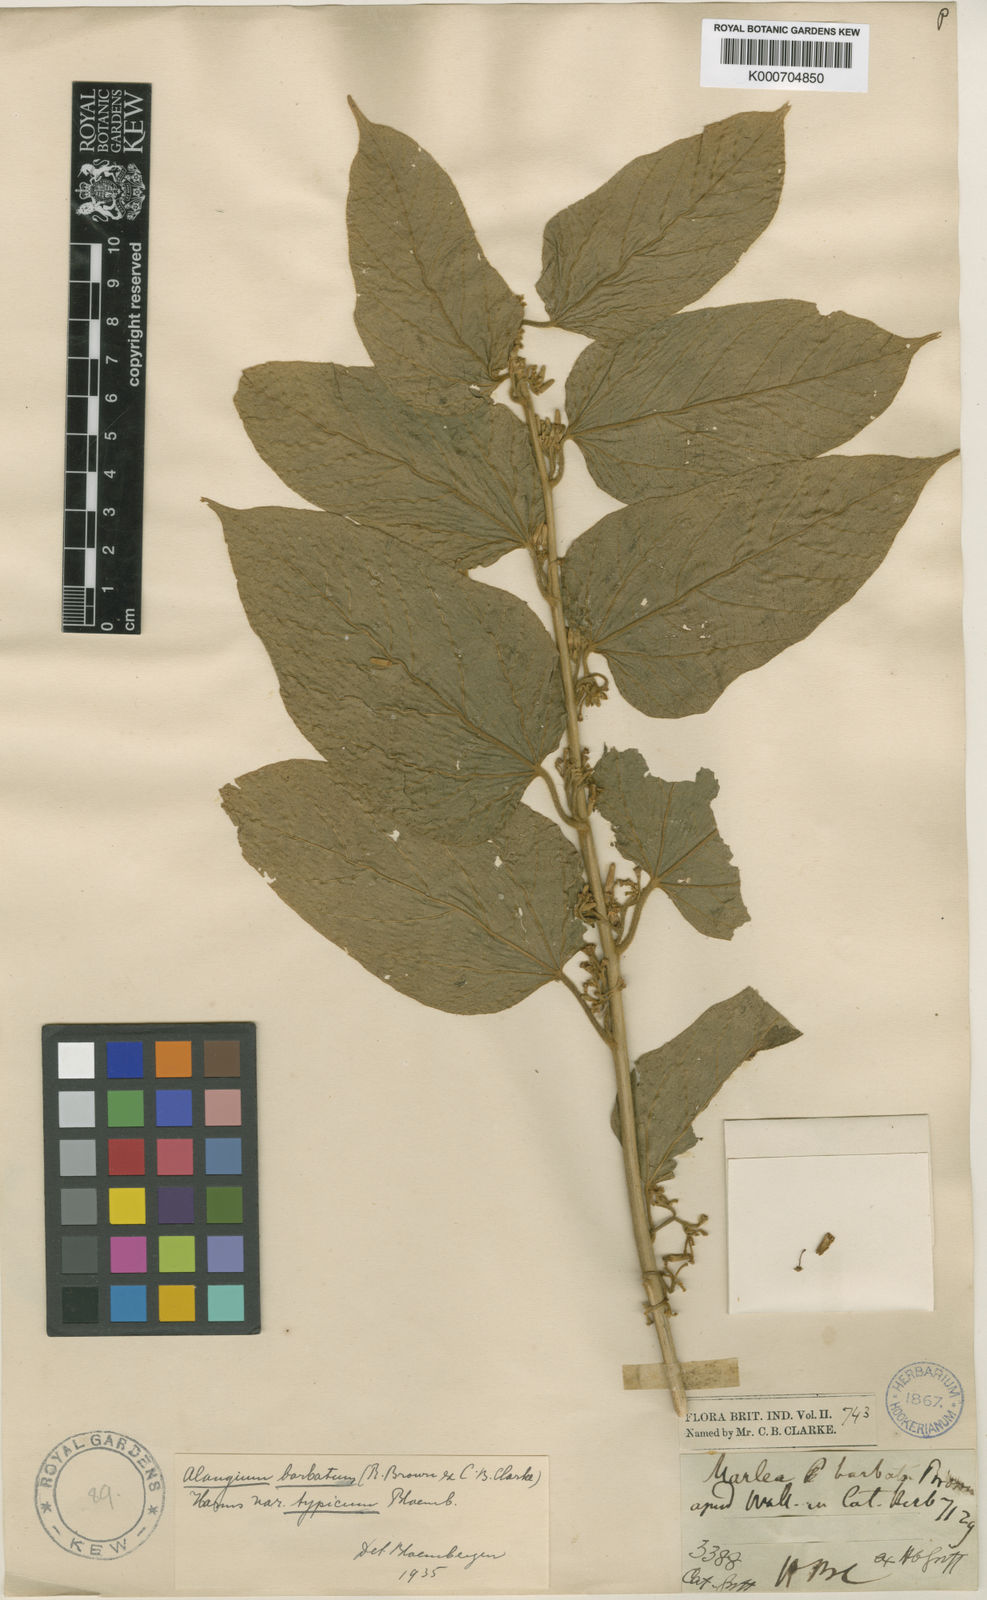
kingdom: Plantae
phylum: Tracheophyta
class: Magnoliopsida
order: Cornales
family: Cornaceae
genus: Alangium
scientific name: Alangium
